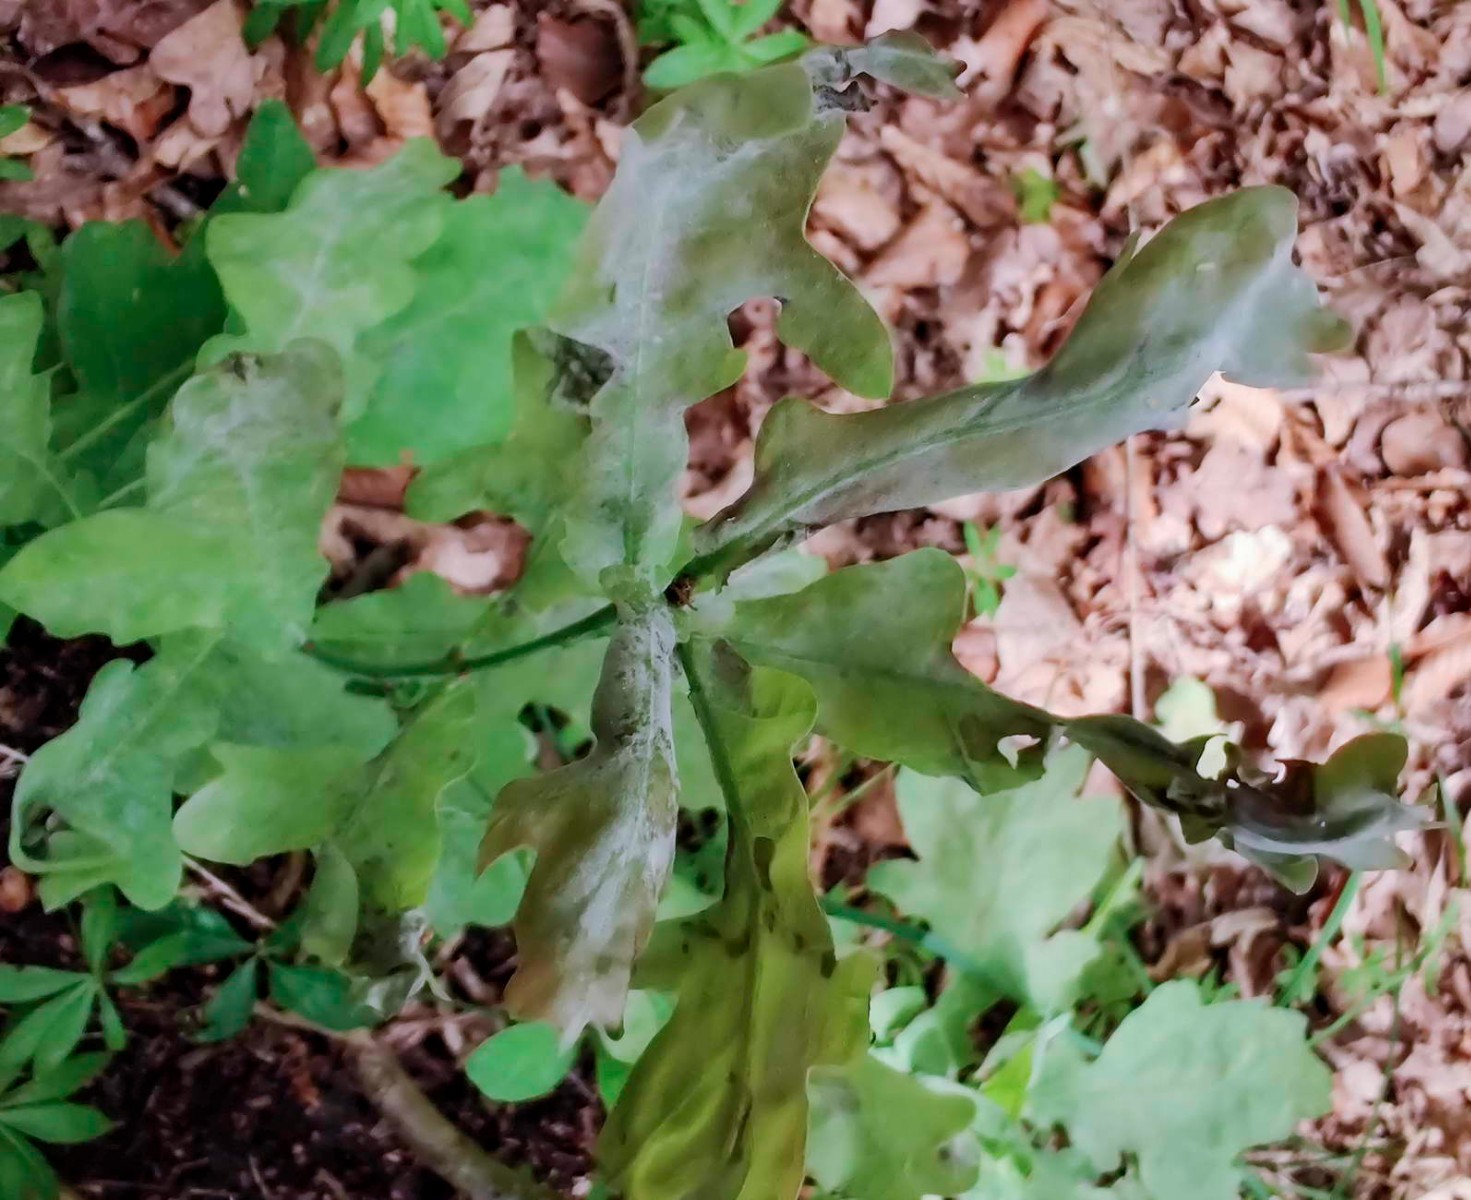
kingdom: Fungi
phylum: Ascomycota
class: Leotiomycetes
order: Helotiales
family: Erysiphaceae
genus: Erysiphe
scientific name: Erysiphe alphitoides
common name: ege-meldug
